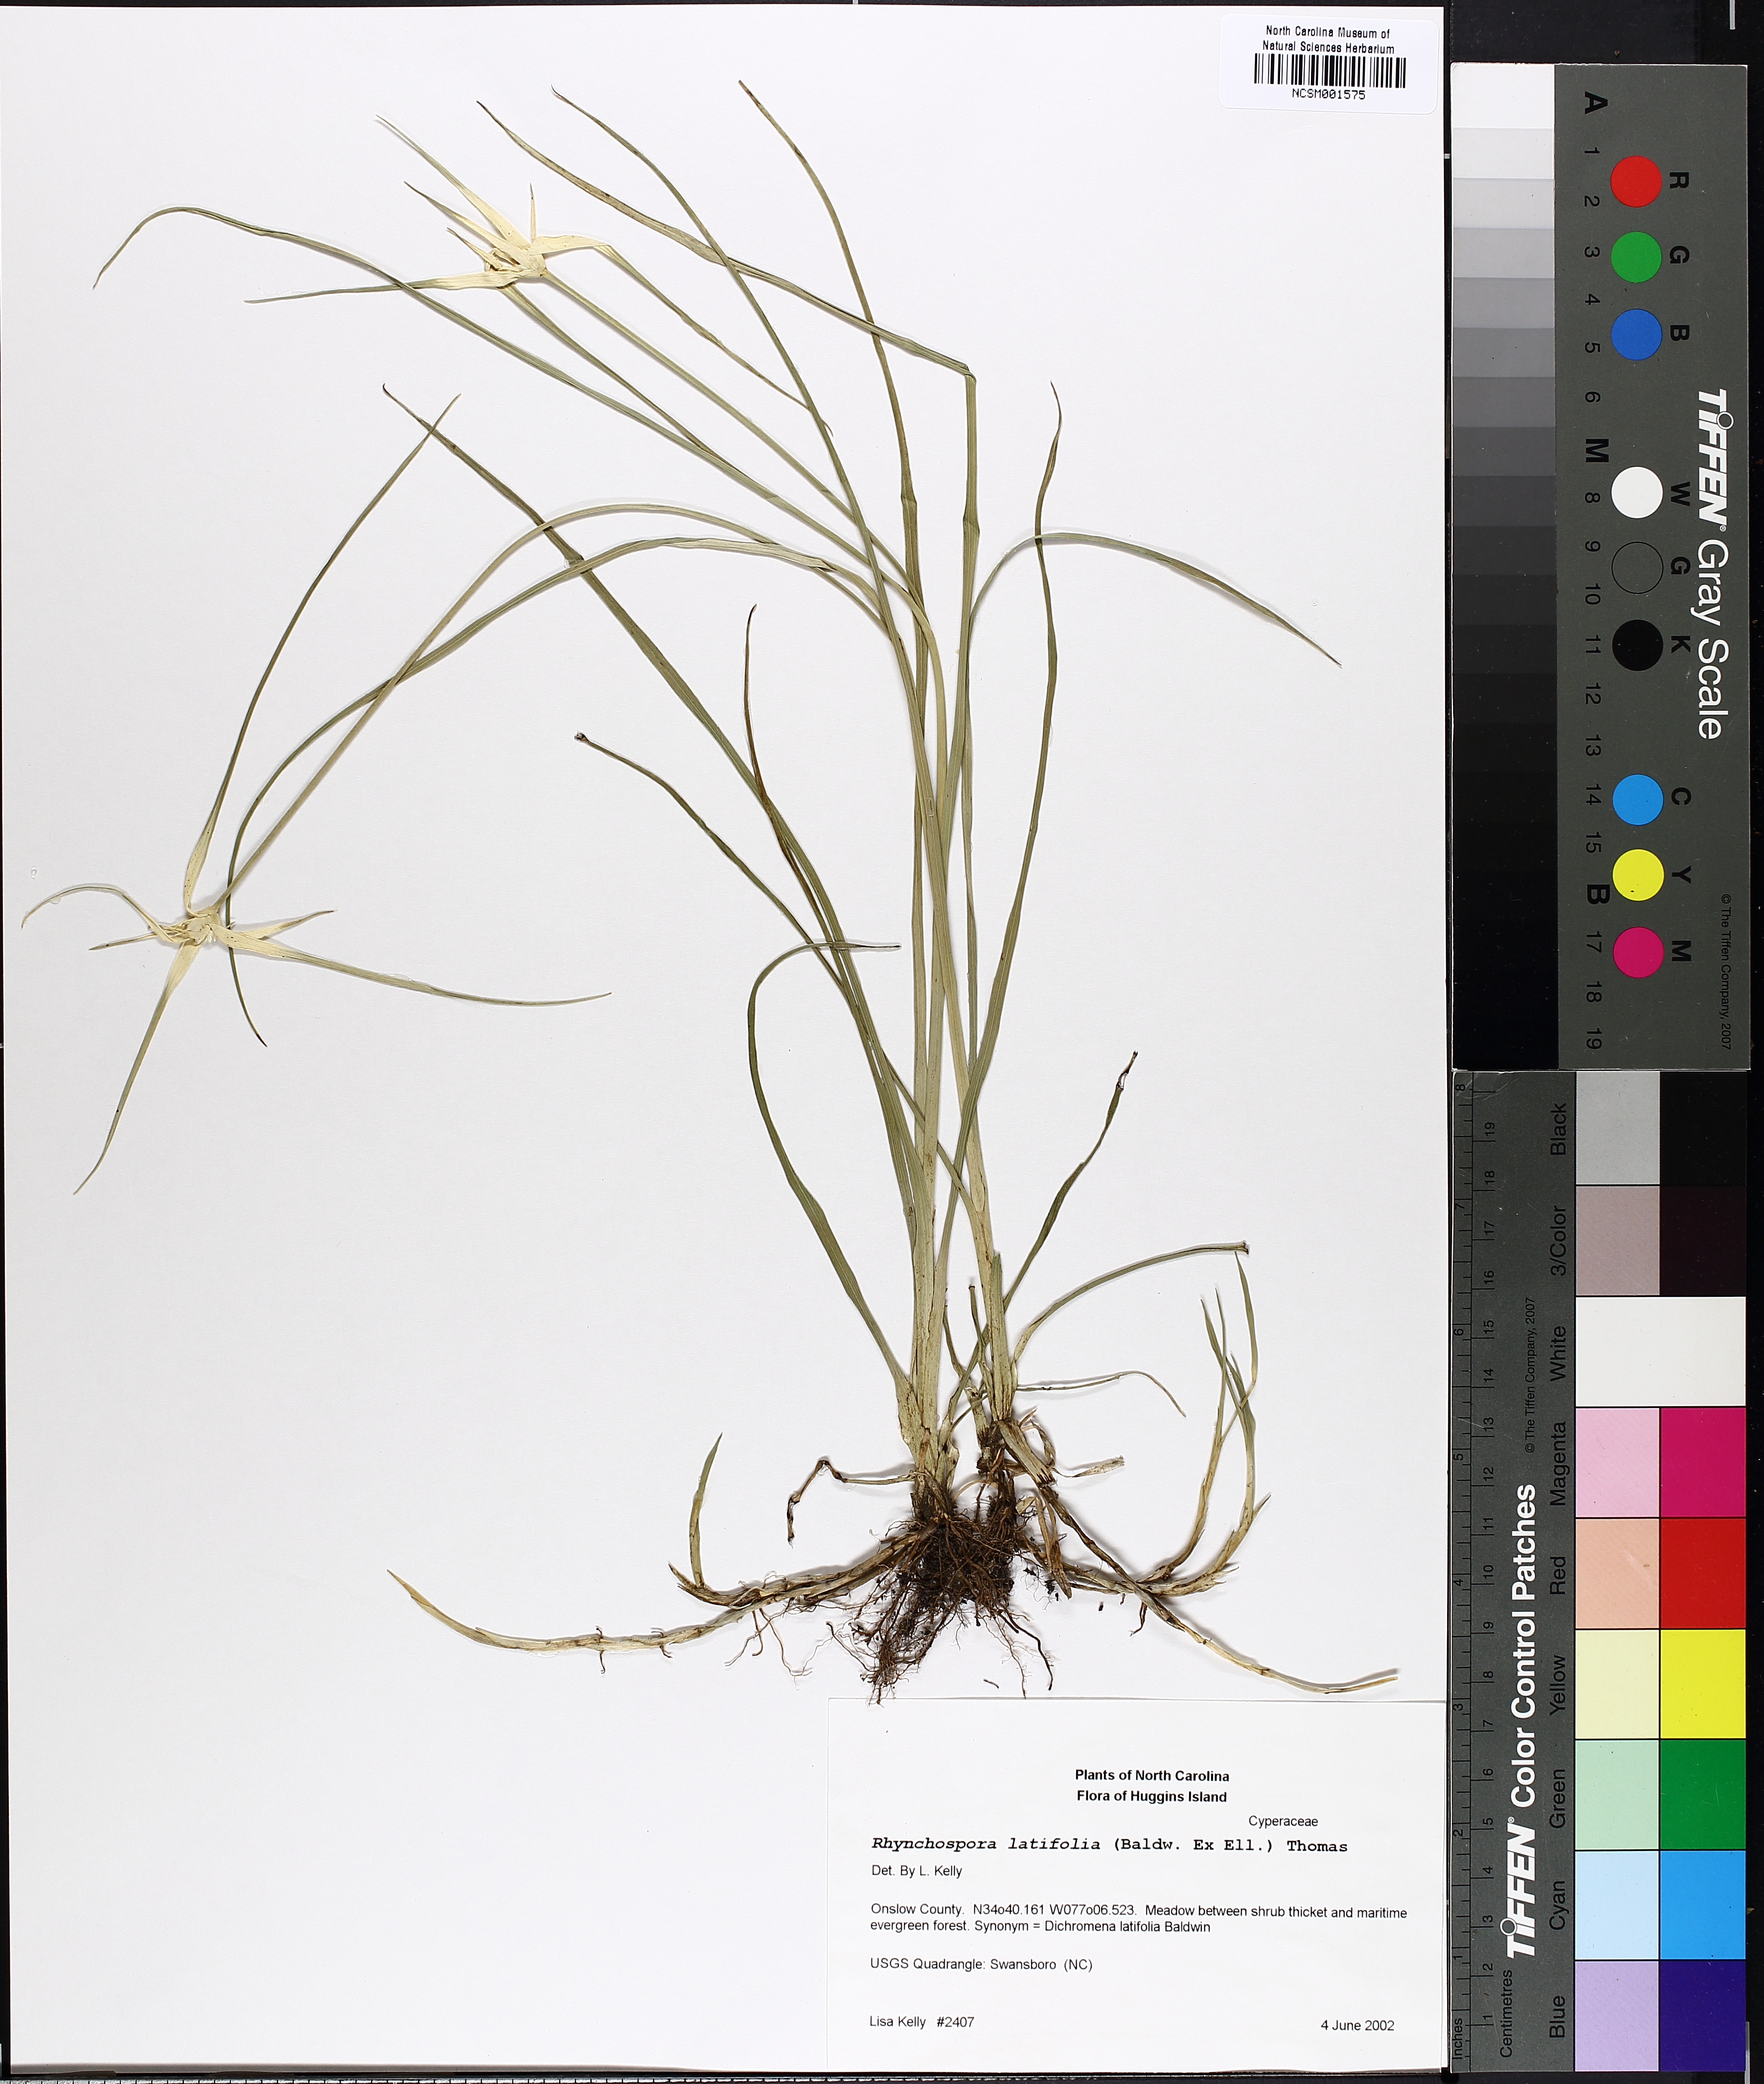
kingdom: Plantae
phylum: Tracheophyta
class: Liliopsida
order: Poales
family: Cyperaceae
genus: Rhynchospora
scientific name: Rhynchospora latifolia
